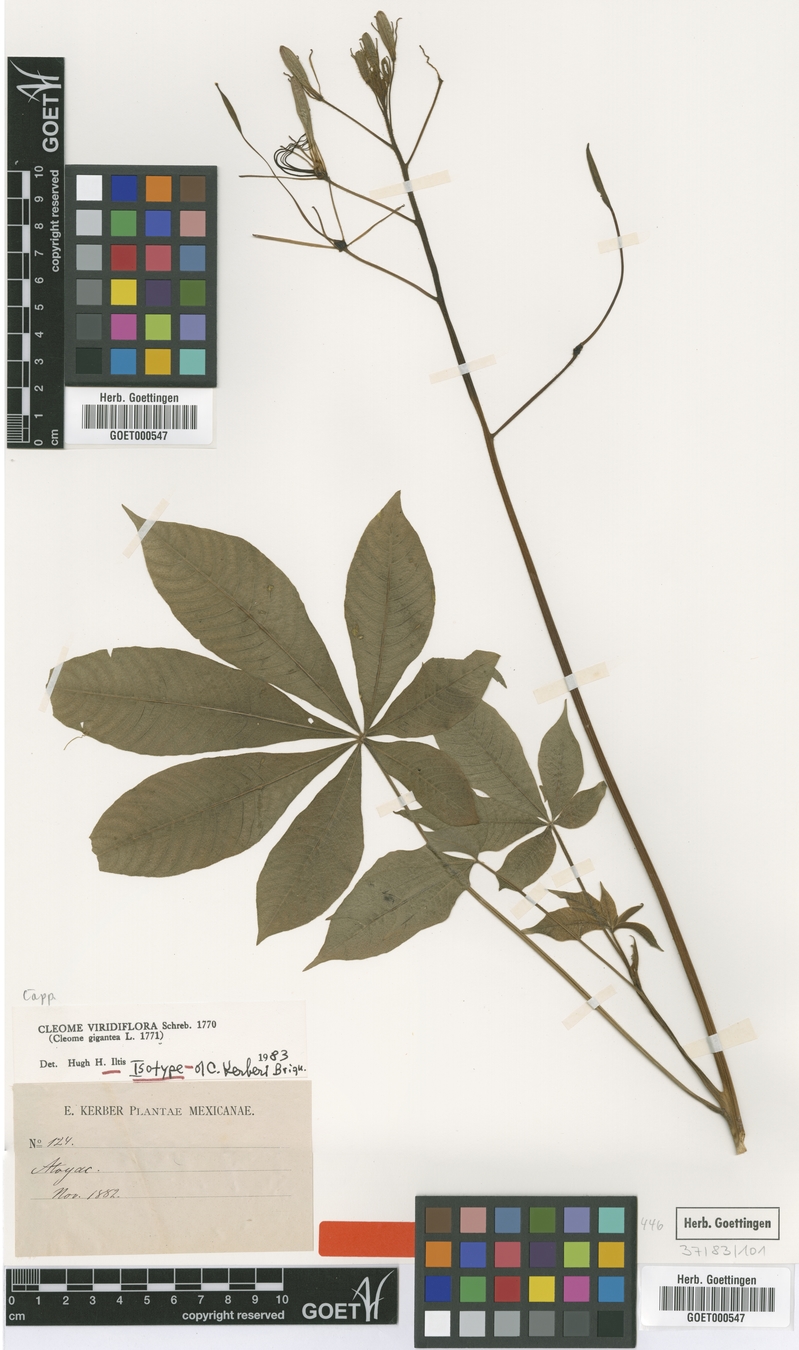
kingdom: Plantae
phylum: Tracheophyta
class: Magnoliopsida
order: Brassicales
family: Cleomaceae
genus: Melidiscus
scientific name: Melidiscus gigantea
